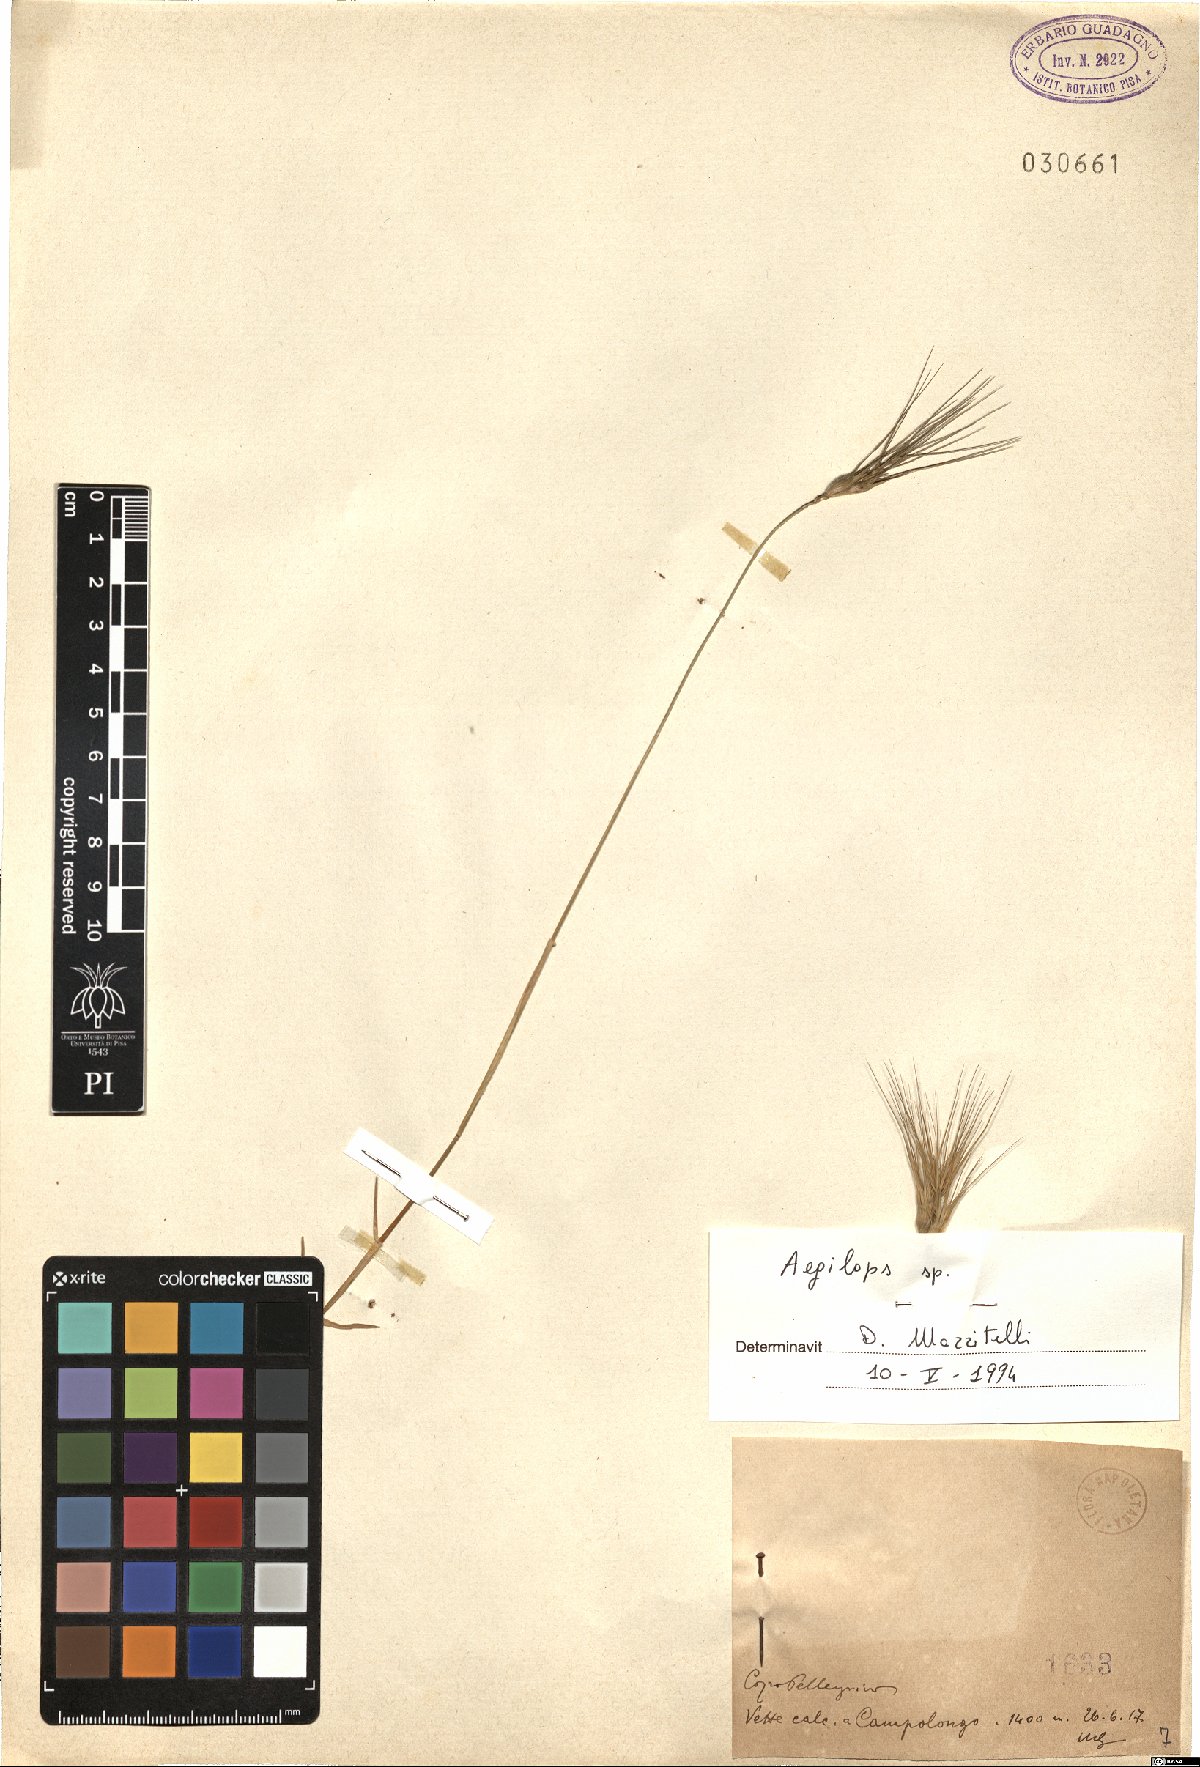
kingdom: Plantae
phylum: Tracheophyta
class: Liliopsida
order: Poales
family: Poaceae
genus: Aegilops
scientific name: Aegilops
